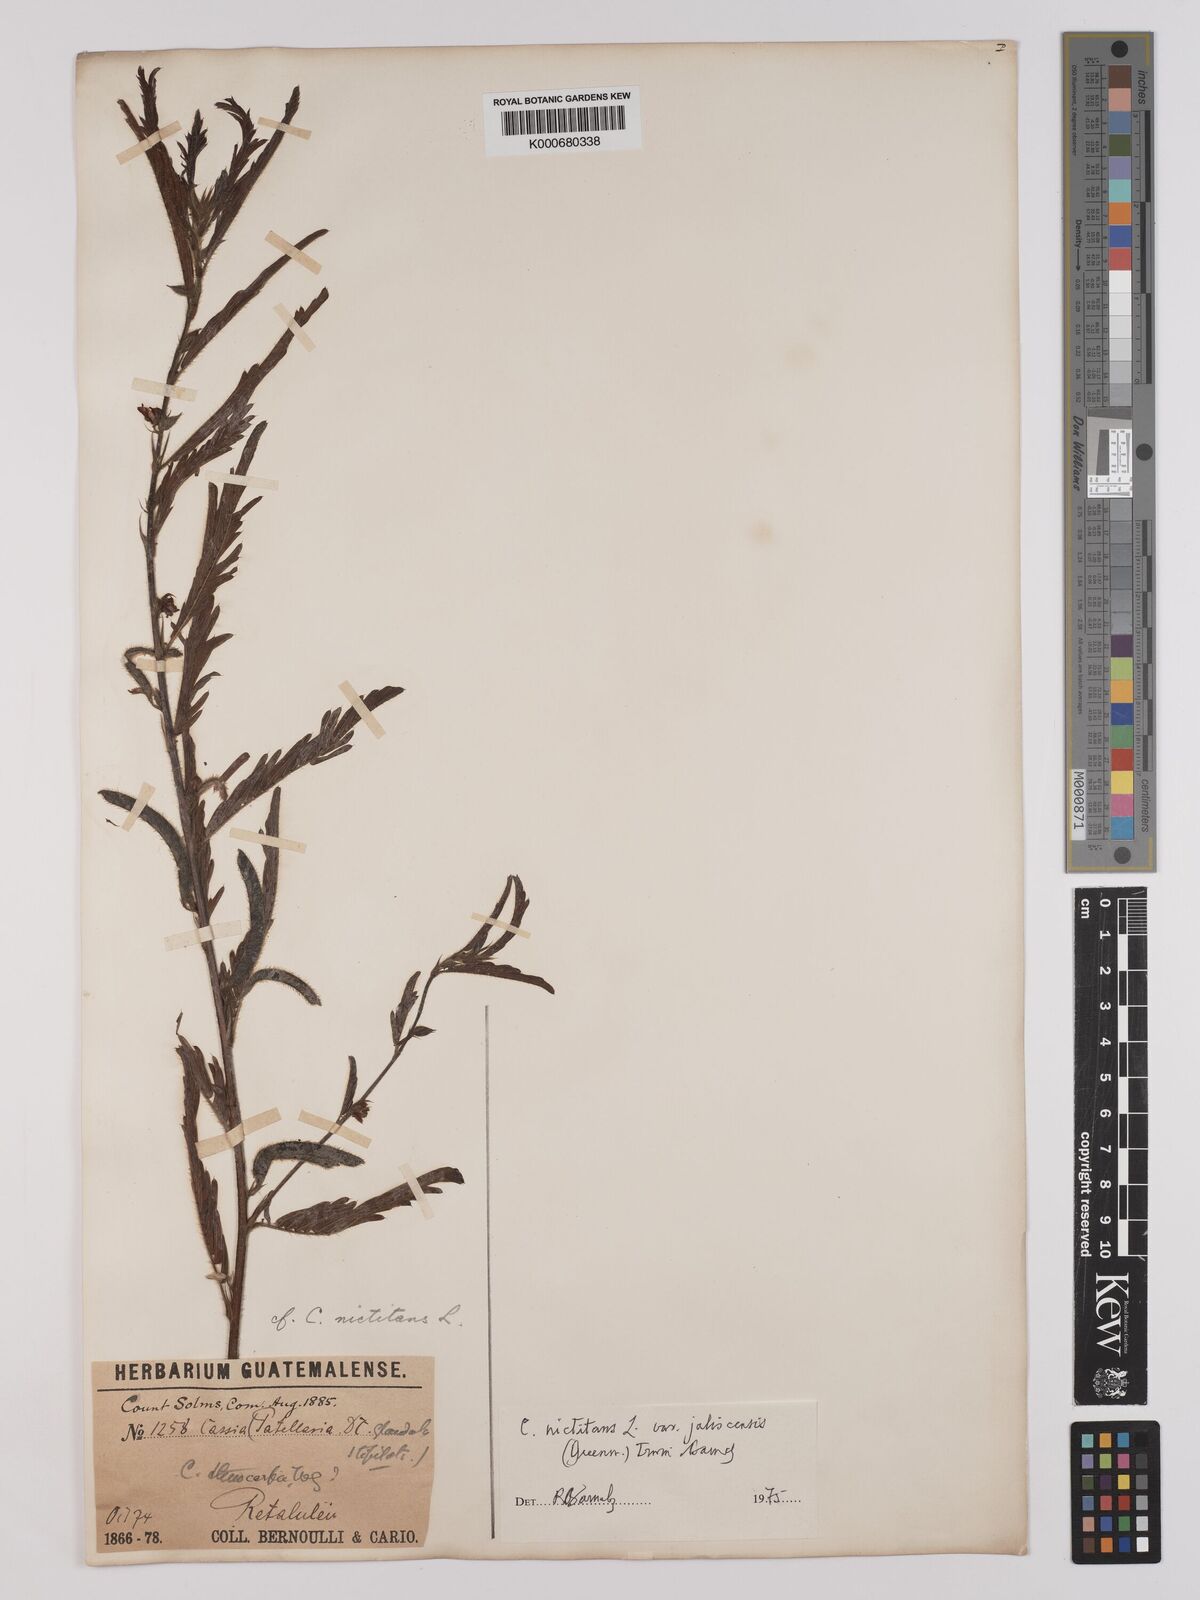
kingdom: Plantae
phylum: Tracheophyta
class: Magnoliopsida
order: Fabales
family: Fabaceae
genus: Chamaecrista
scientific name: Chamaecrista nictitans
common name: Sensitive cassia
